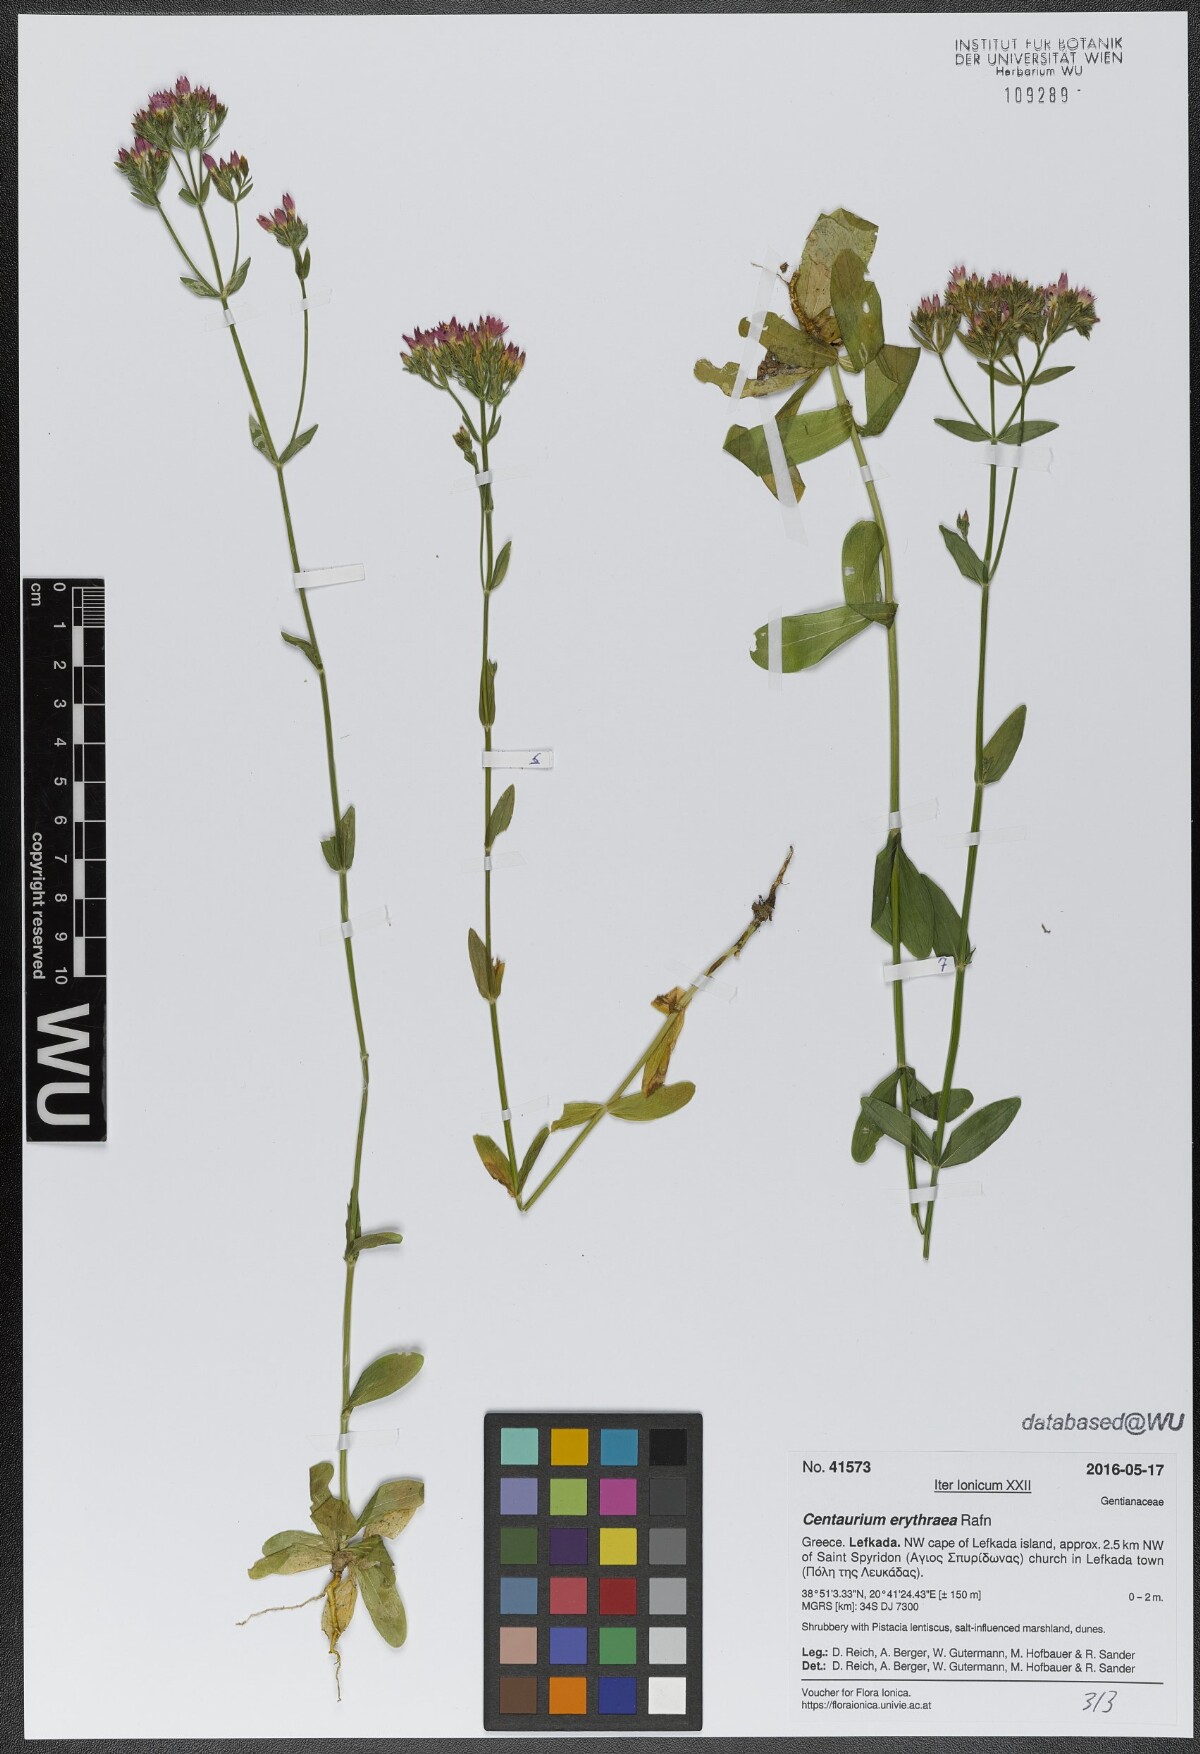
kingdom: Plantae
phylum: Tracheophyta
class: Magnoliopsida
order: Gentianales
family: Gentianaceae
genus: Centaurium
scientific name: Centaurium erythraea
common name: Common centaury
